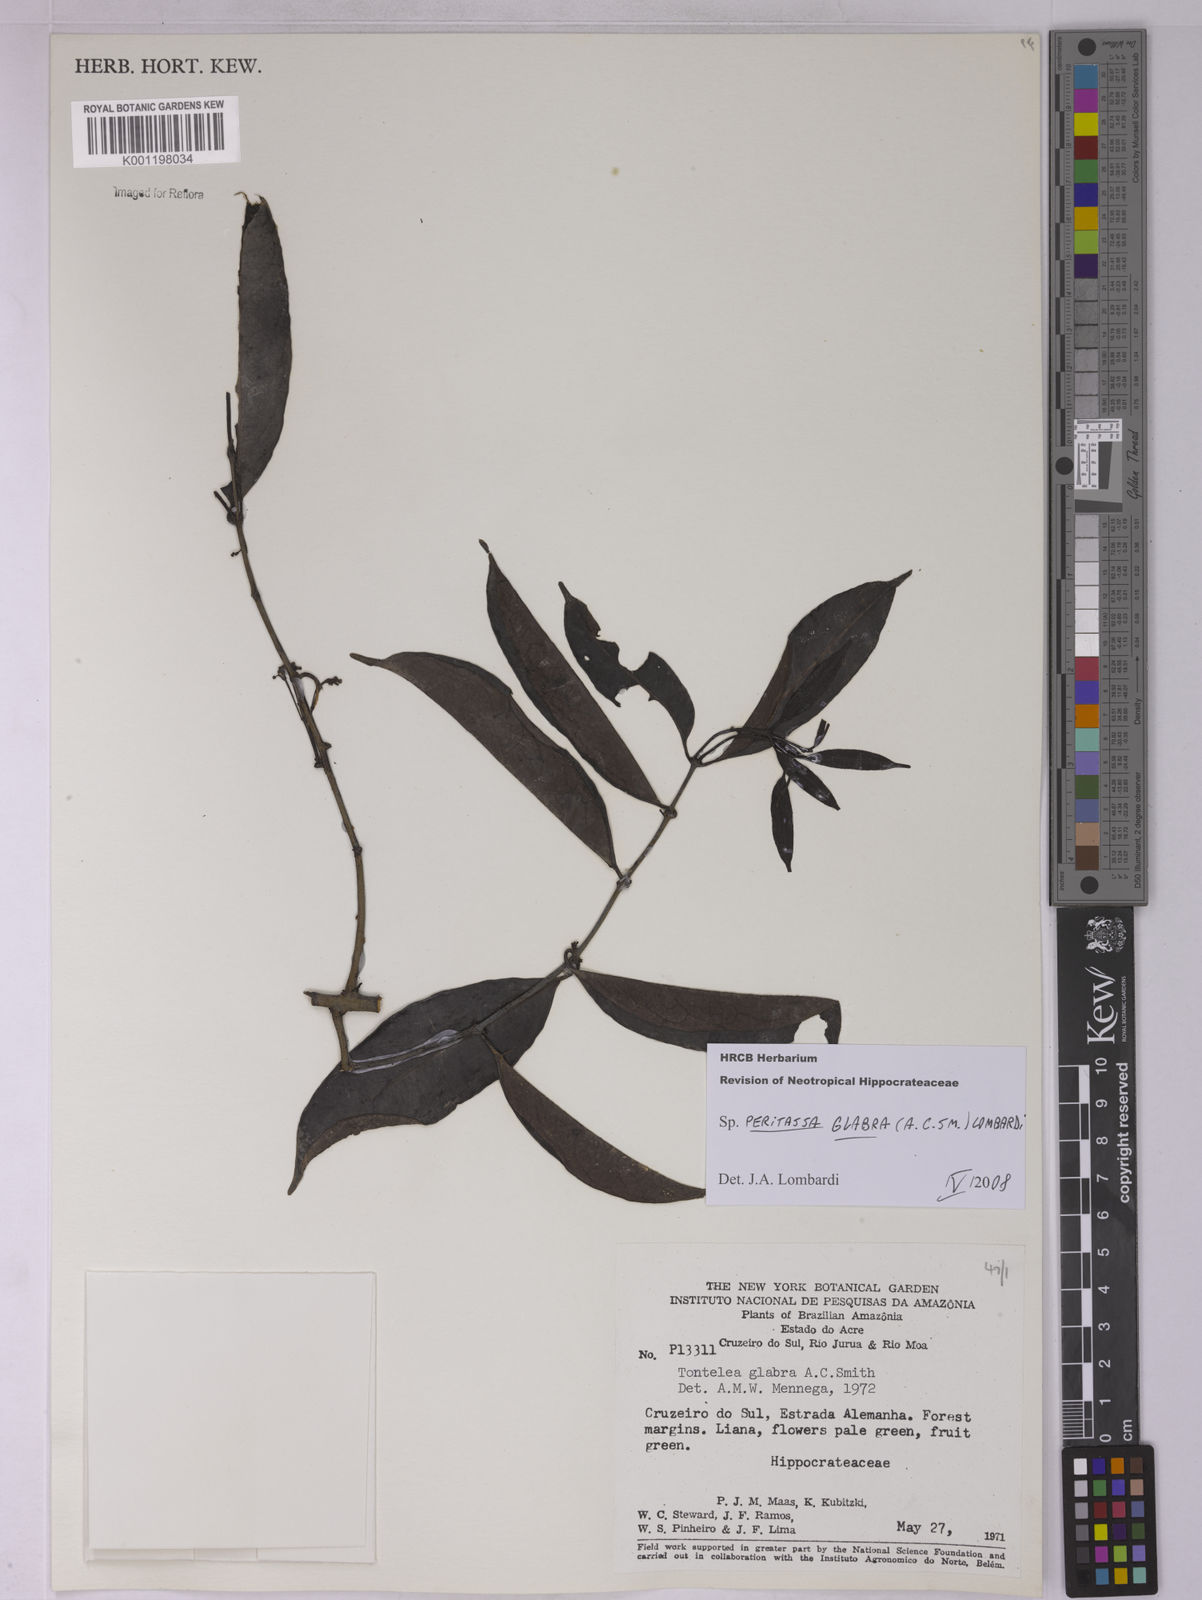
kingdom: Plantae
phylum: Tracheophyta
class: Magnoliopsida
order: Celastrales
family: Celastraceae
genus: Peritassa
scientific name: Peritassa glabra
